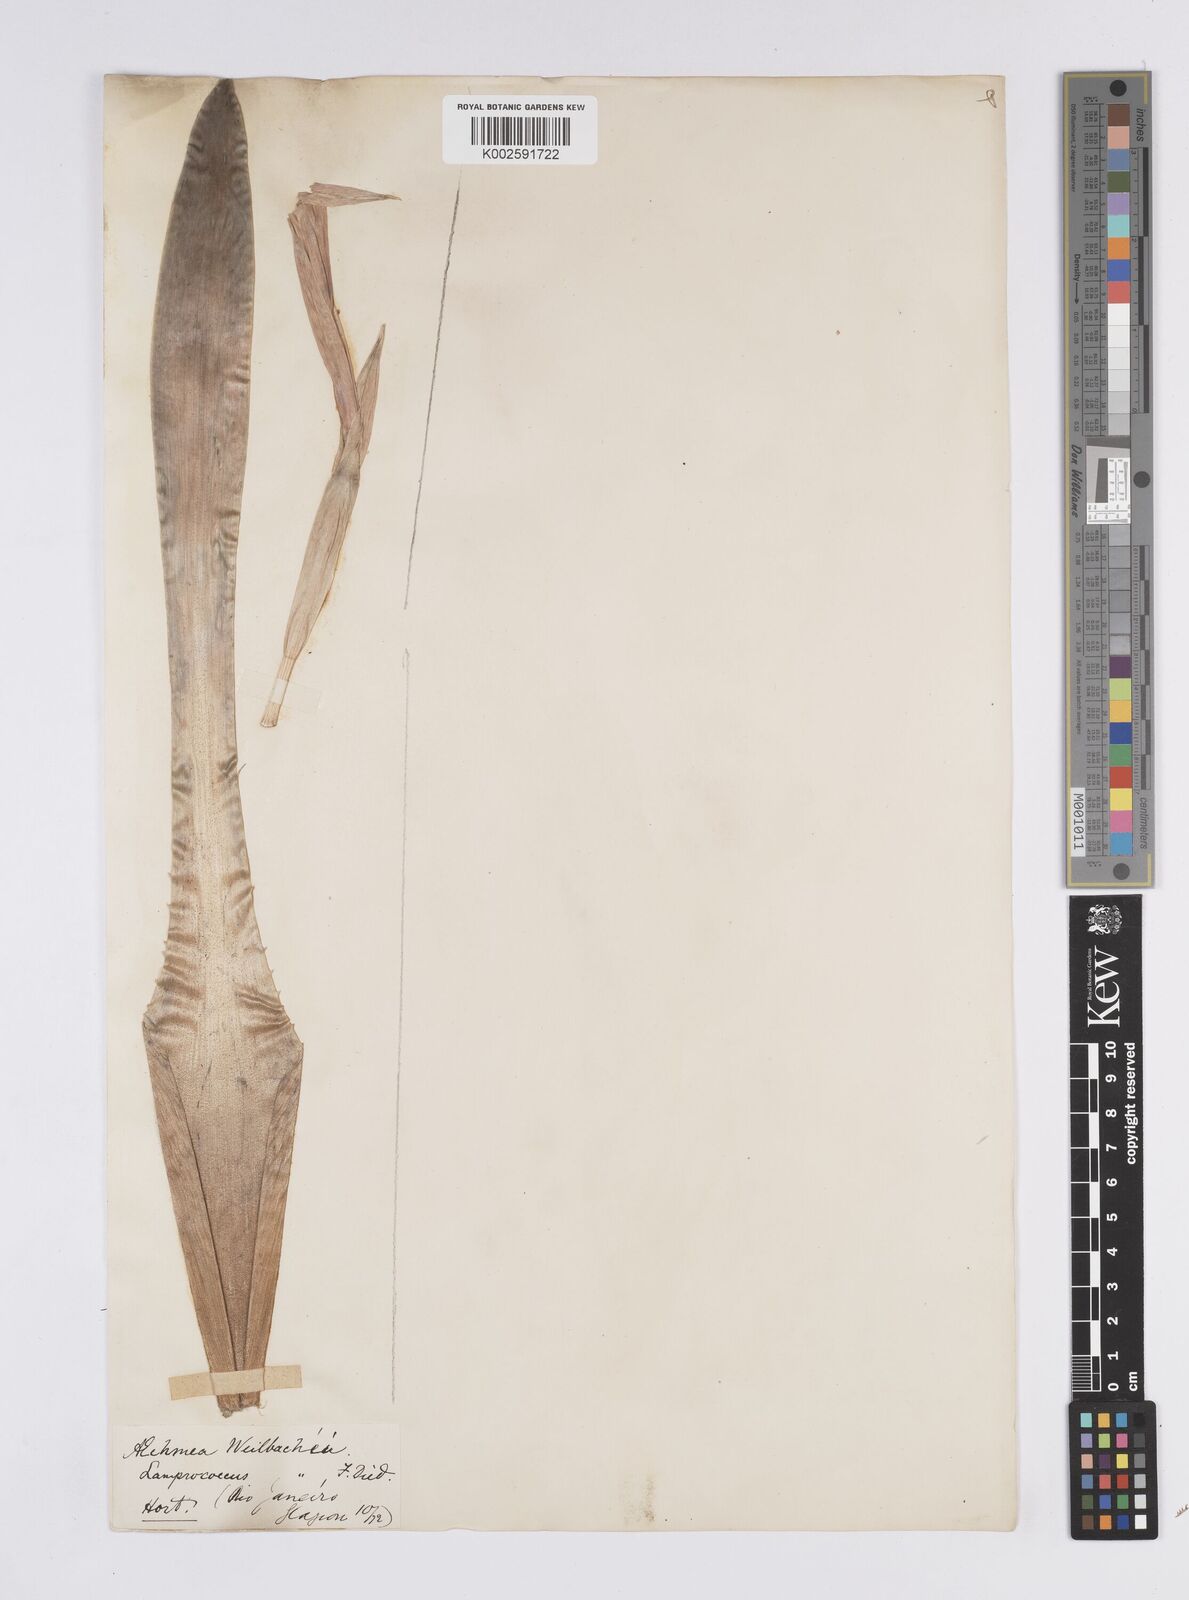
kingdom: Plantae
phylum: Tracheophyta
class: Liliopsida
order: Poales
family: Bromeliaceae
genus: Aechmea
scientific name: Aechmea weilbachii
